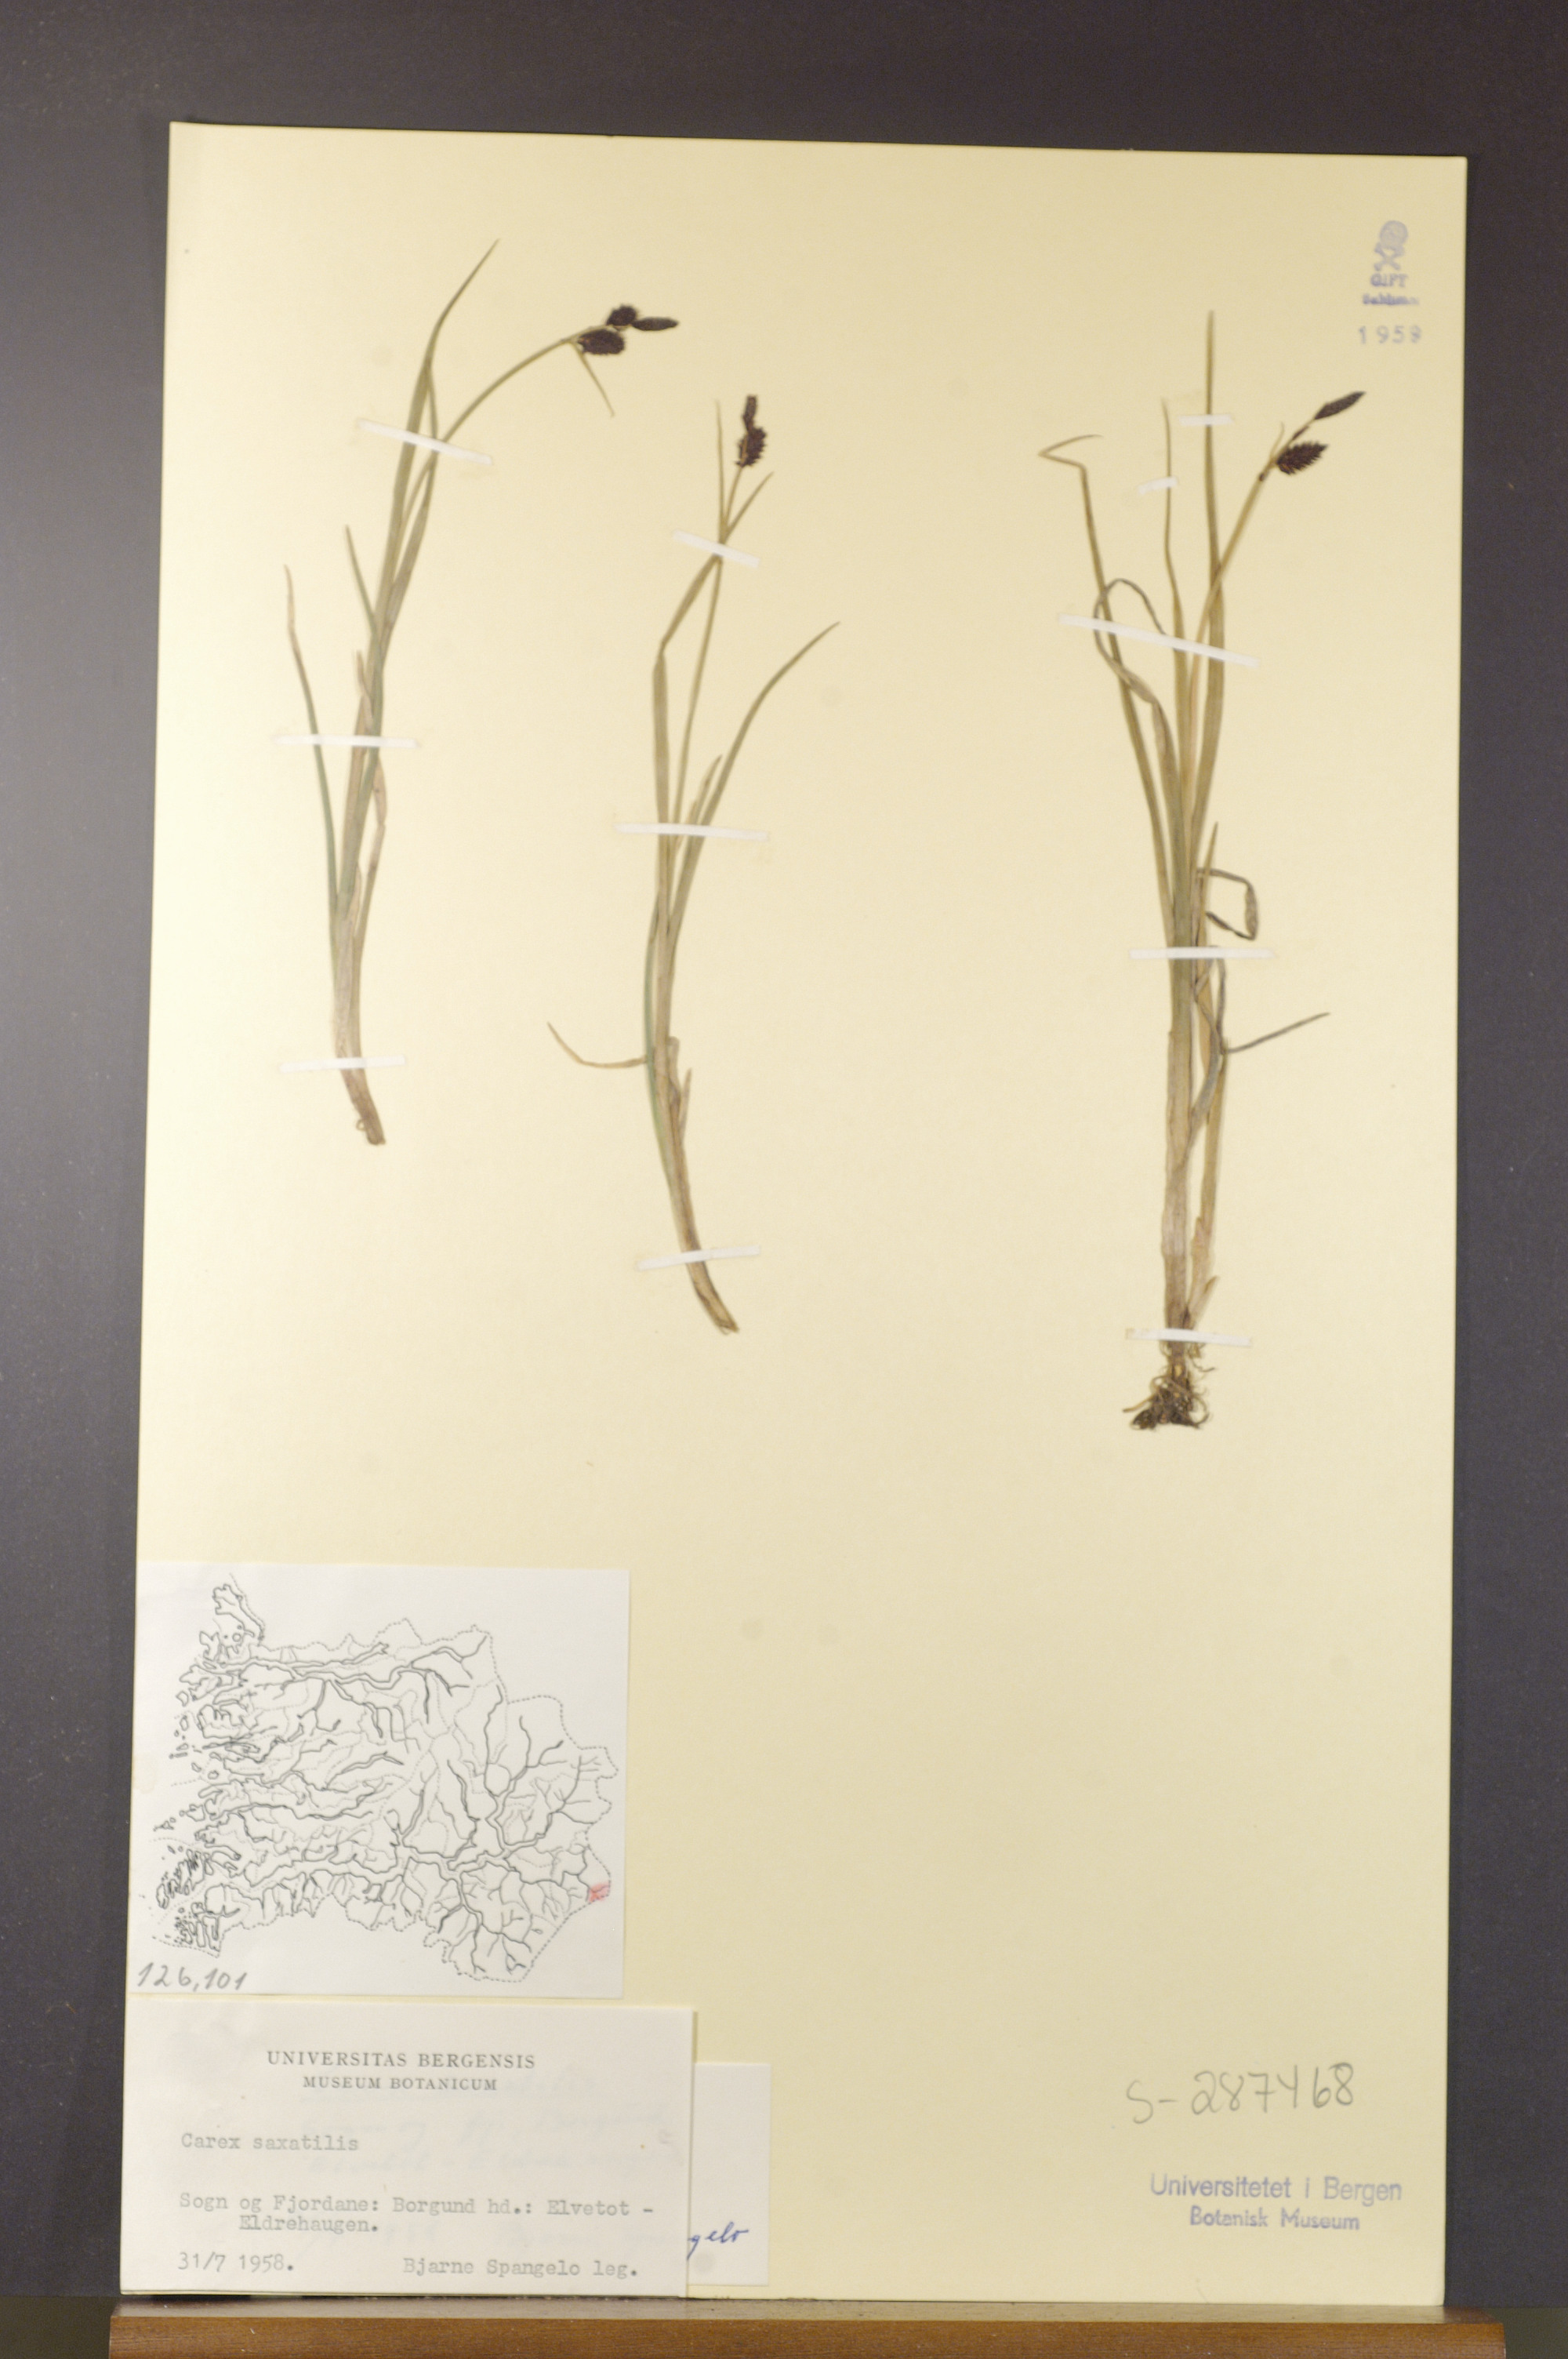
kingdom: Plantae
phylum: Tracheophyta
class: Liliopsida
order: Poales
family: Cyperaceae
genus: Carex
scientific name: Carex saxatilis
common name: Russet sedge
